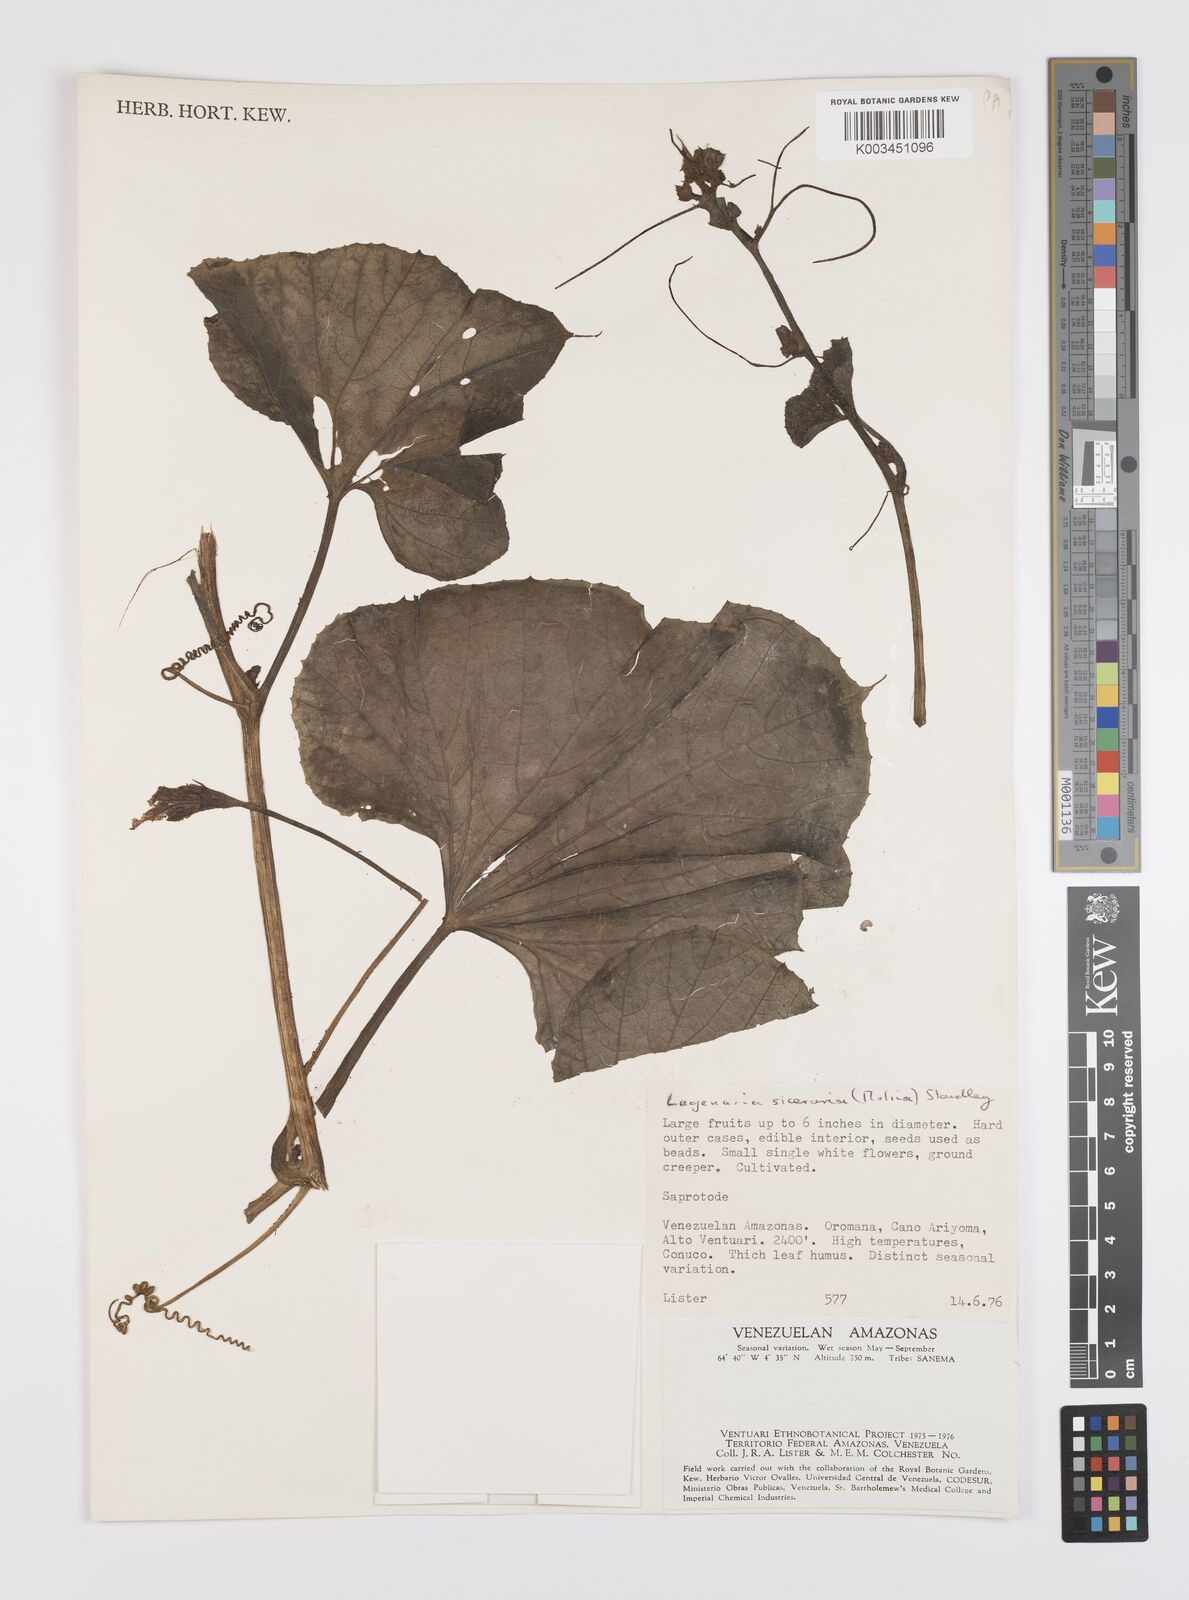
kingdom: Plantae
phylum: Tracheophyta
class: Magnoliopsida
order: Cucurbitales
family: Cucurbitaceae
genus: Lagenaria
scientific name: Lagenaria siceraria
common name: Bottle gourd
